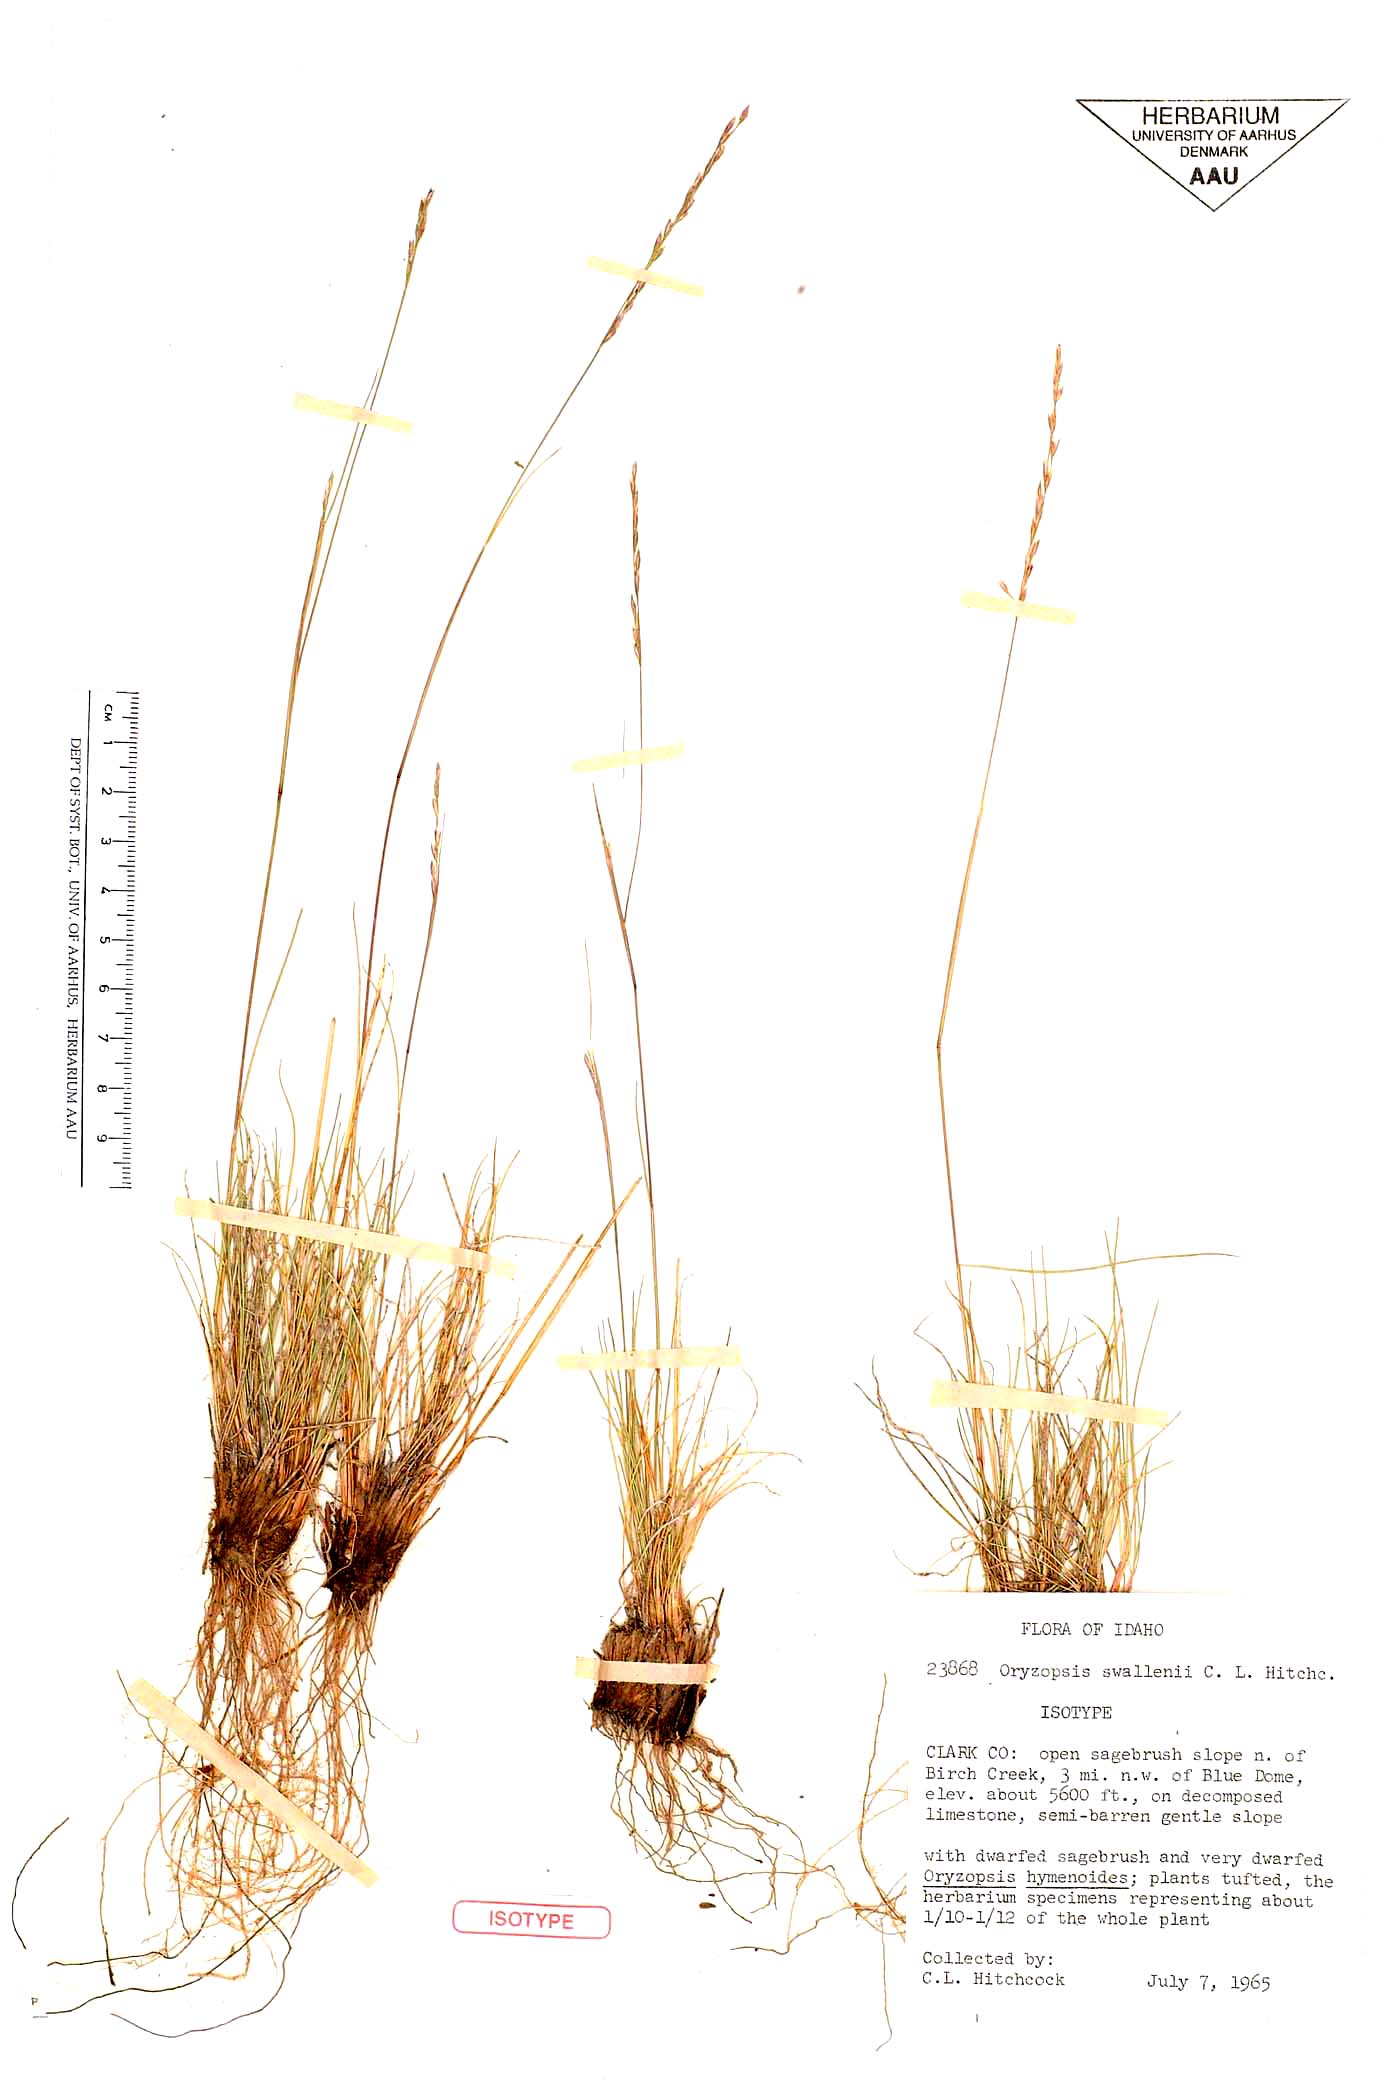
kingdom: Plantae
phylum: Tracheophyta
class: Liliopsida
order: Poales
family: Poaceae
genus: Eriocoma
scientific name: Eriocoma swallenii
